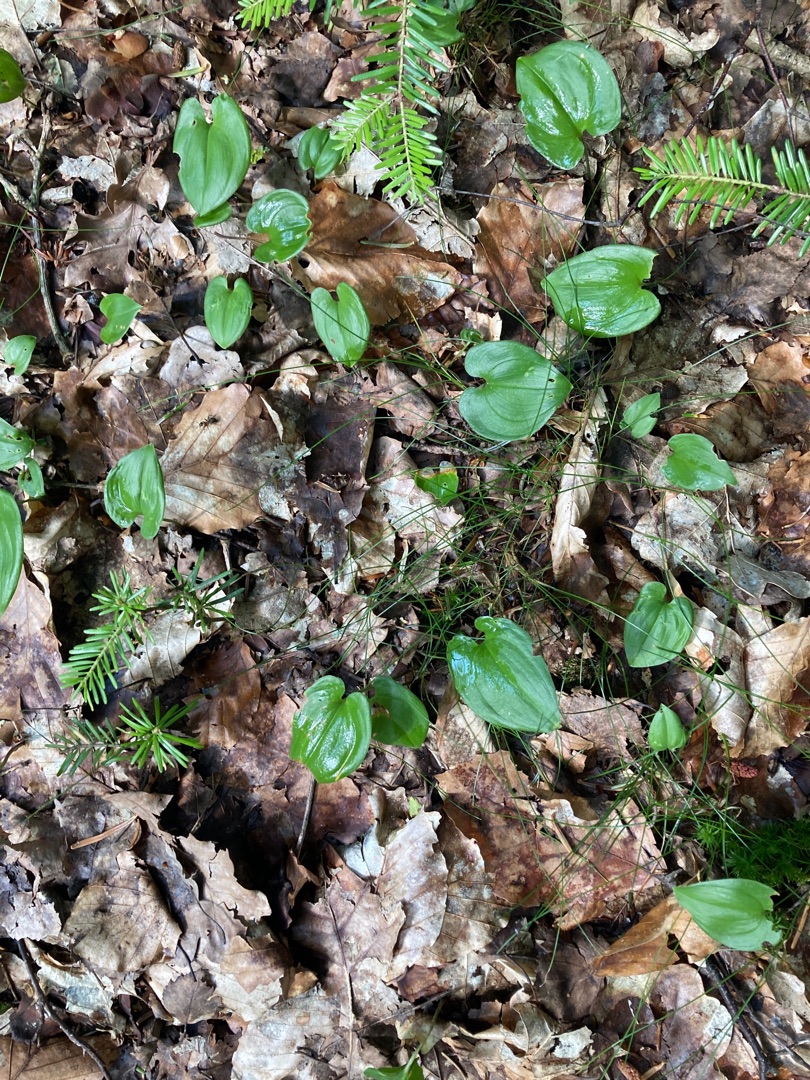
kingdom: Plantae
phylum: Tracheophyta
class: Liliopsida
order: Asparagales
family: Asparagaceae
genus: Maianthemum
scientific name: Maianthemum bifolium
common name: Majblomst
